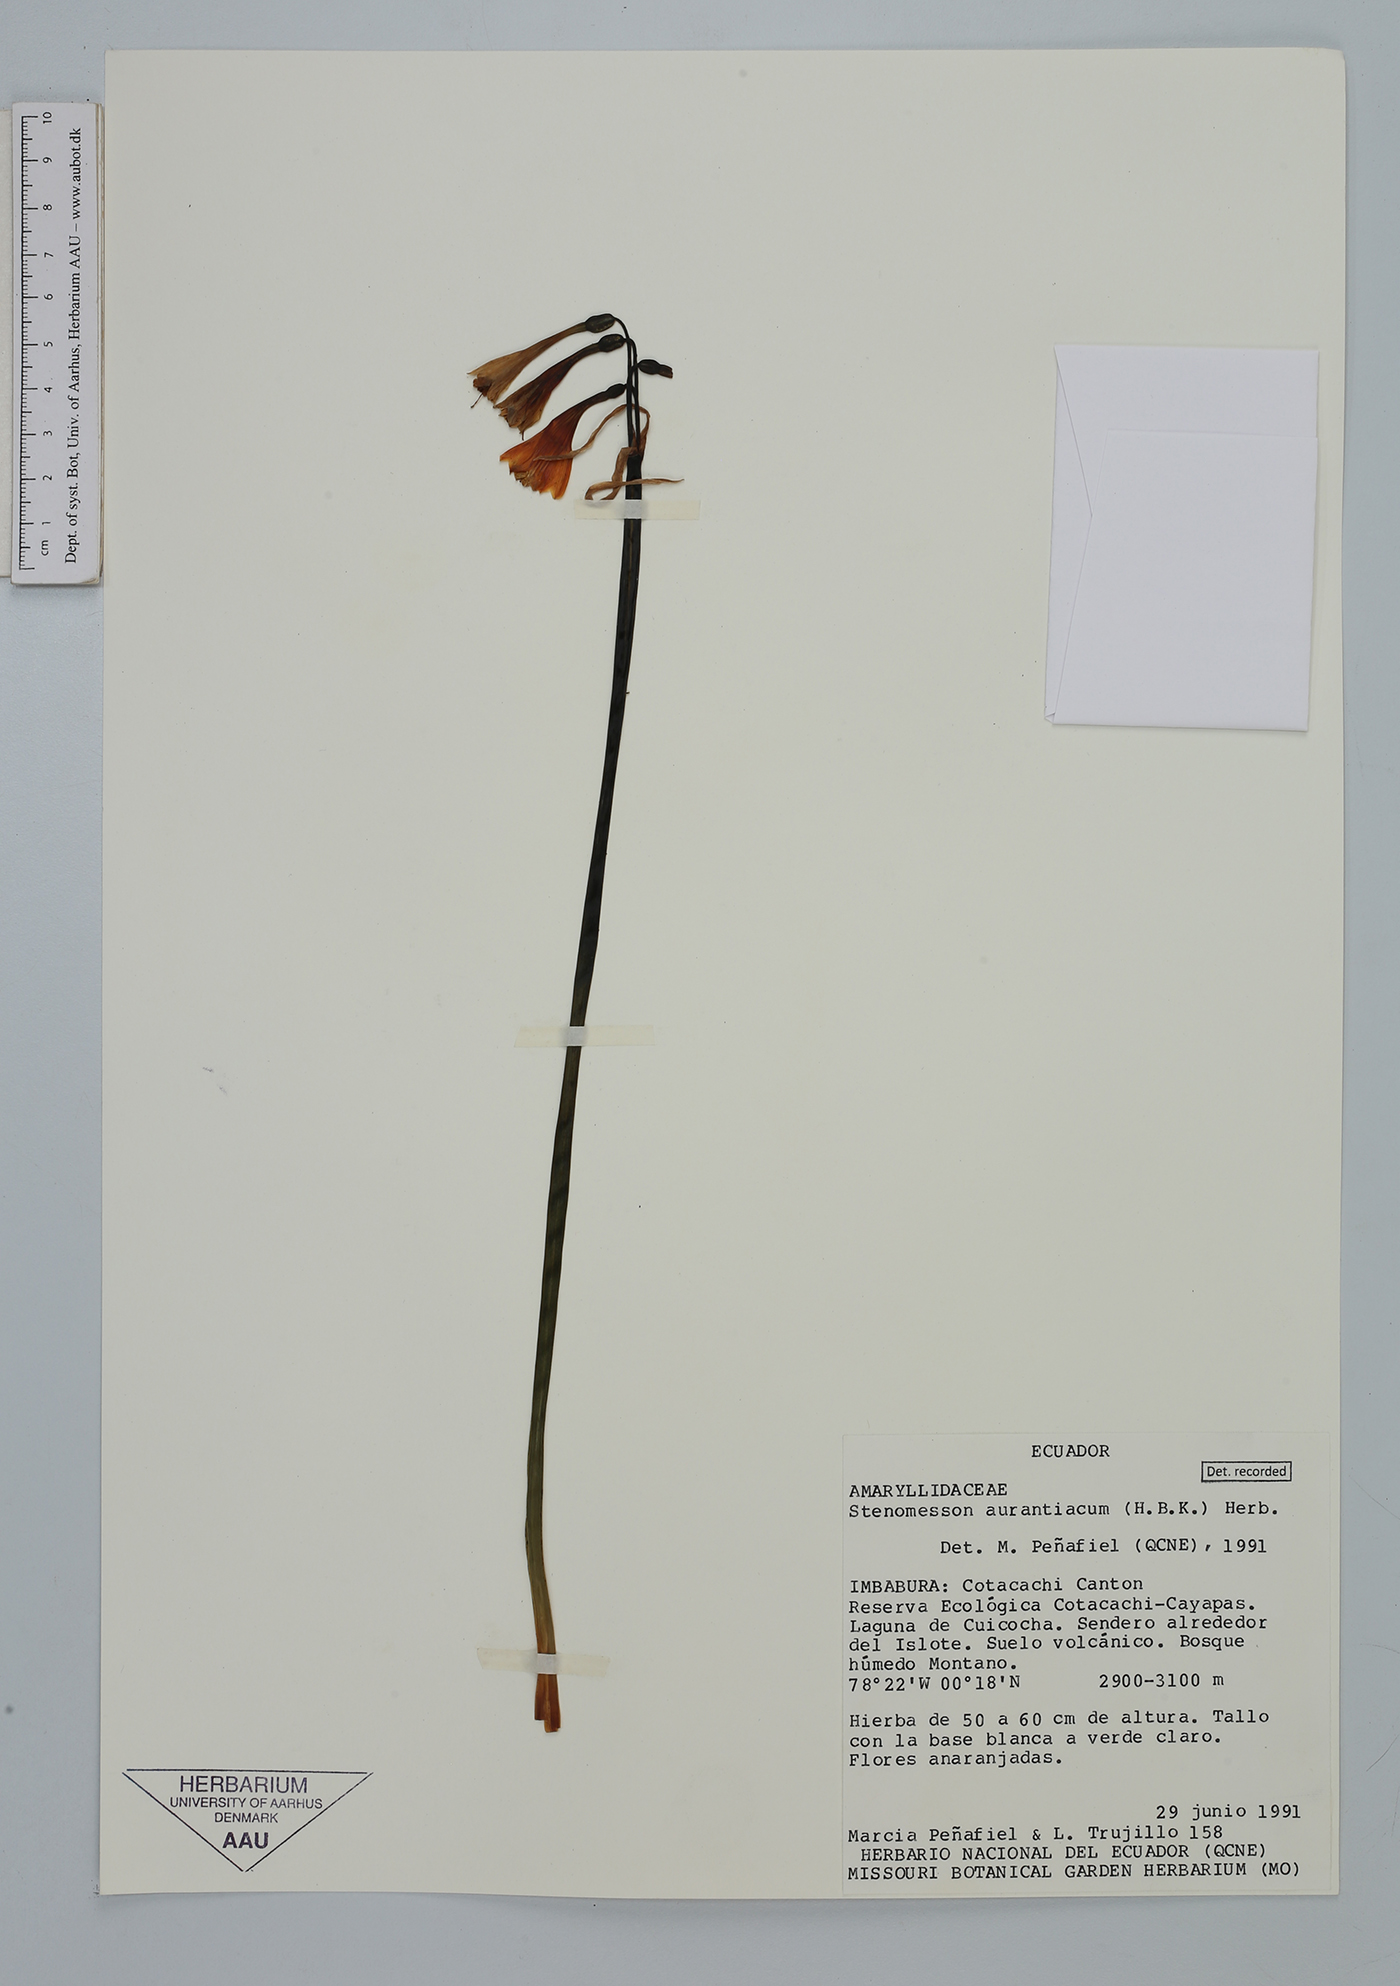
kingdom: Plantae
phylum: Tracheophyta
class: Liliopsida
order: Asparagales
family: Amaryllidaceae
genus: Stenomesson
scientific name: Stenomesson aurantiacum
